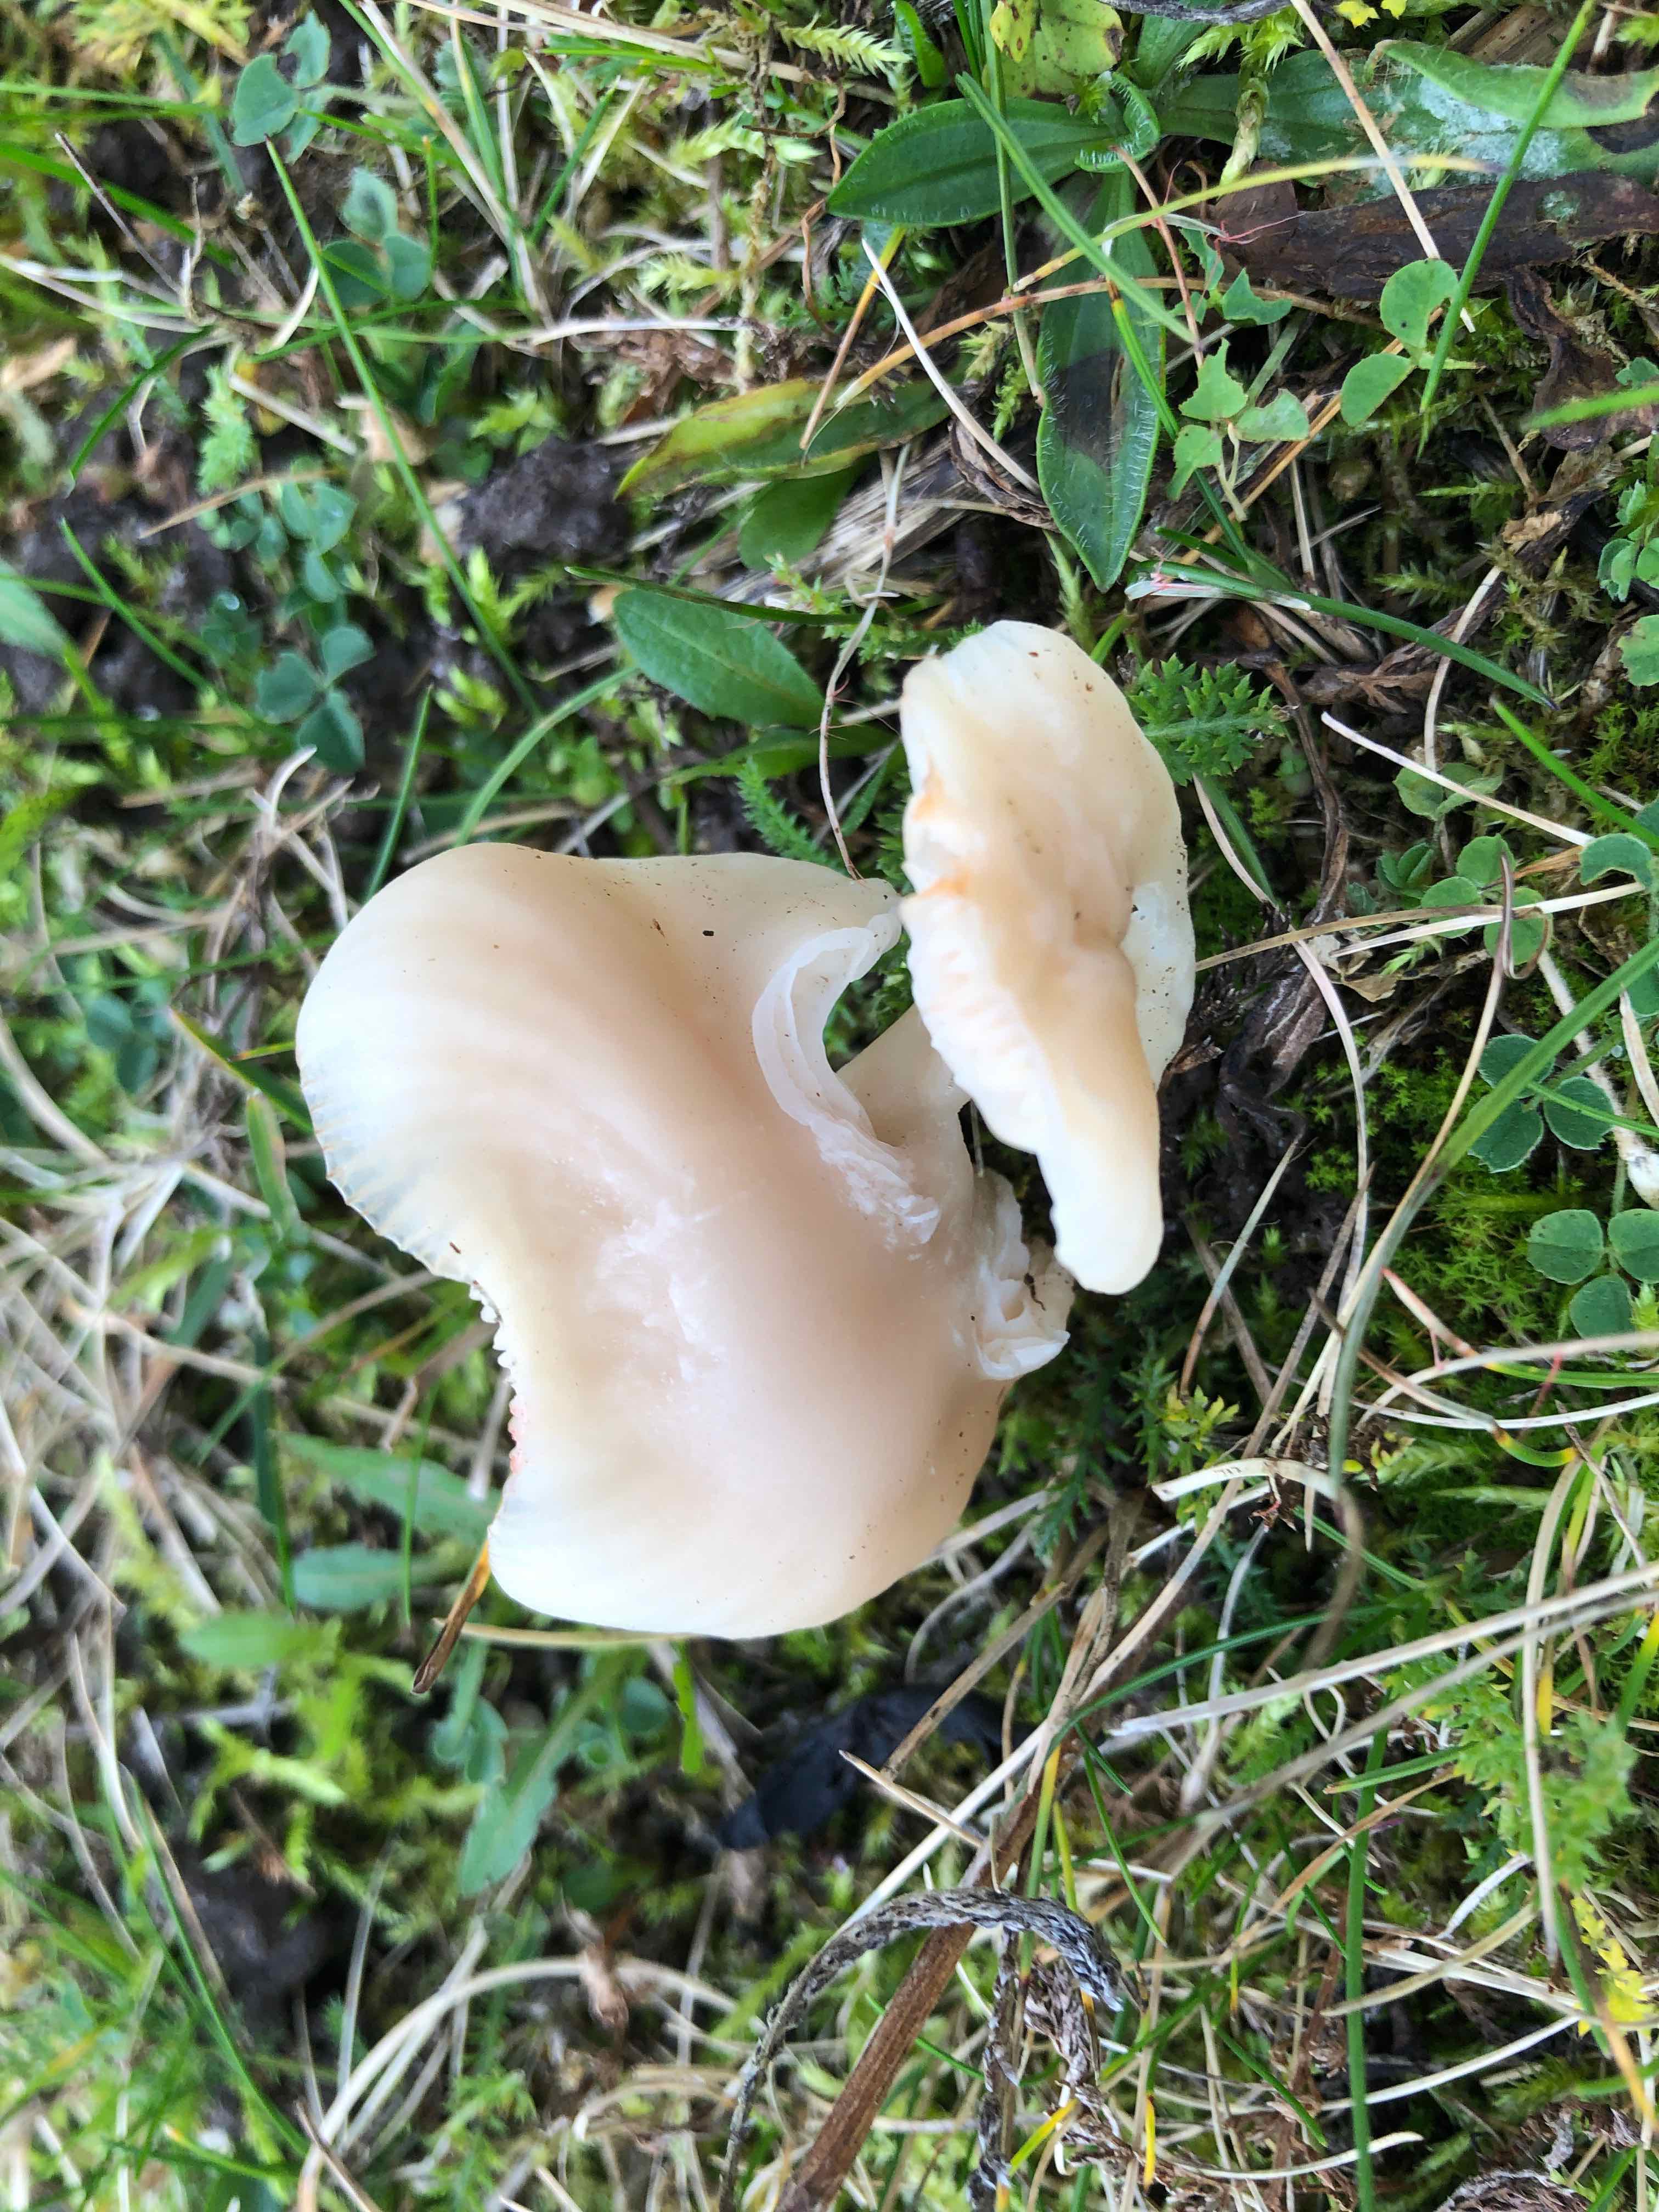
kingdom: Fungi
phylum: Basidiomycota
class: Agaricomycetes
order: Agaricales
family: Hygrophoraceae
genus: Cuphophyllus
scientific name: Cuphophyllus virgineus
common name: isabella-vokshat
